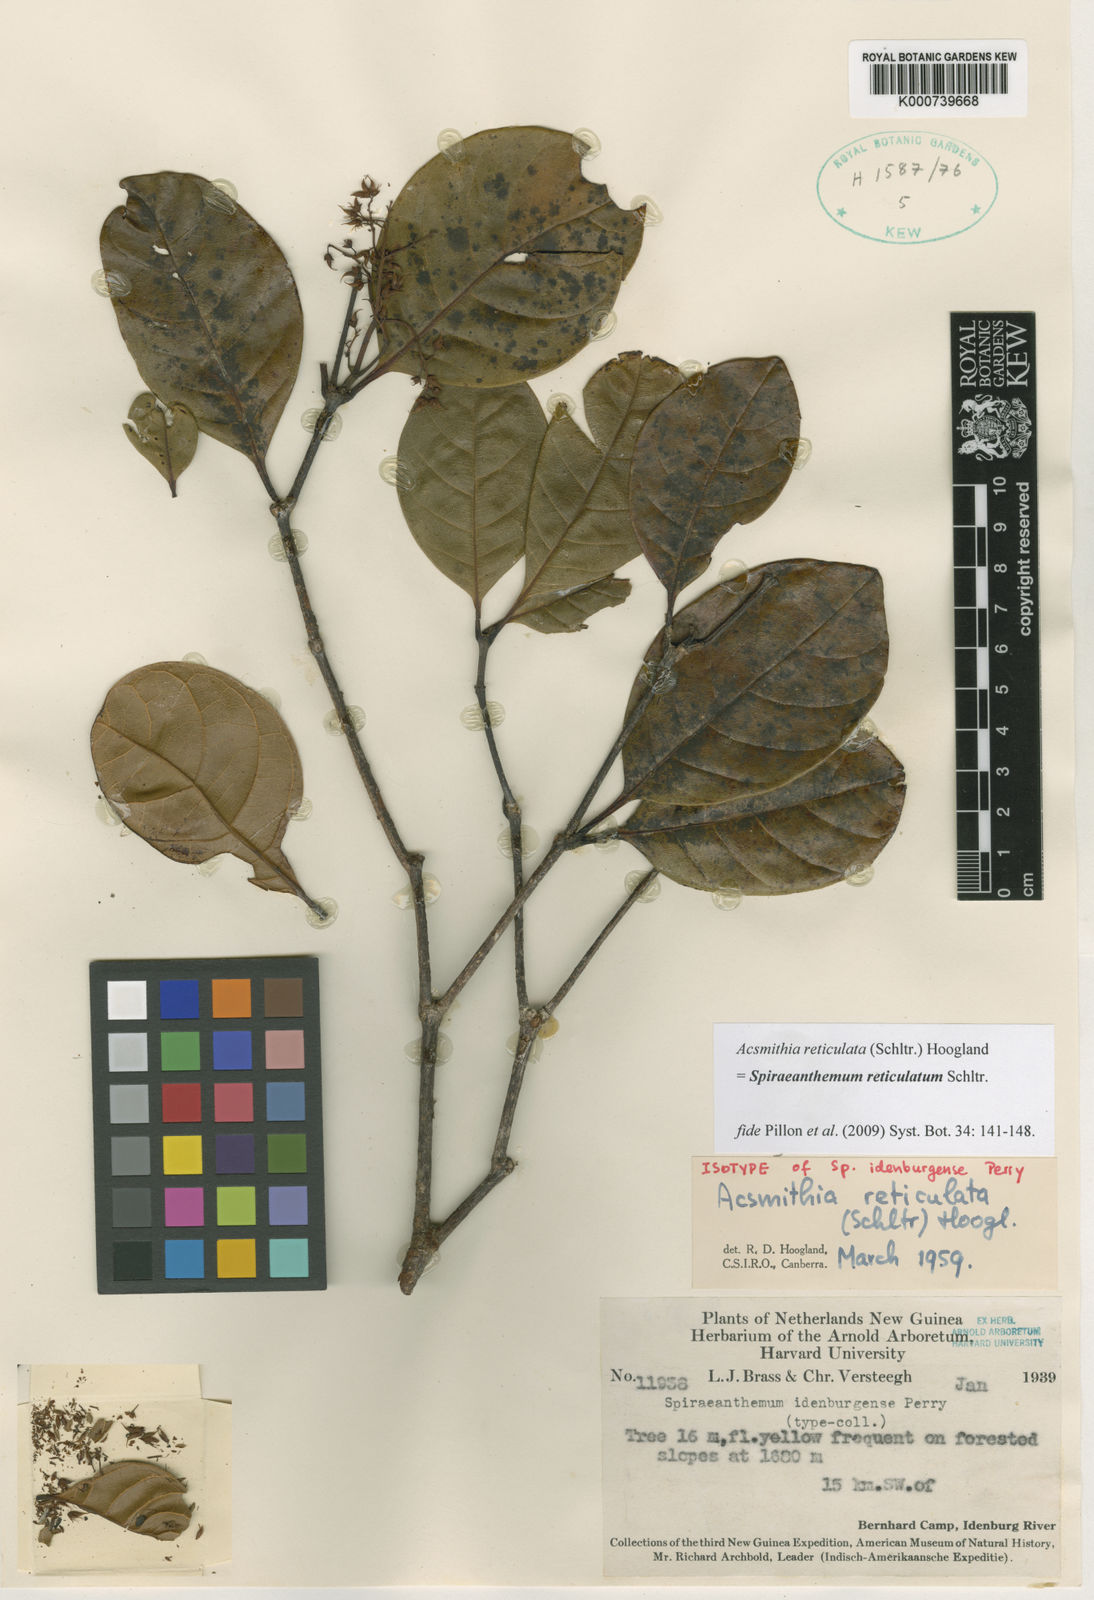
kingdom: Plantae
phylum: Tracheophyta
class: Magnoliopsida
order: Oxalidales
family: Cunoniaceae
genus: Spiraeanthemum
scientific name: Spiraeanthemum reticulatum
